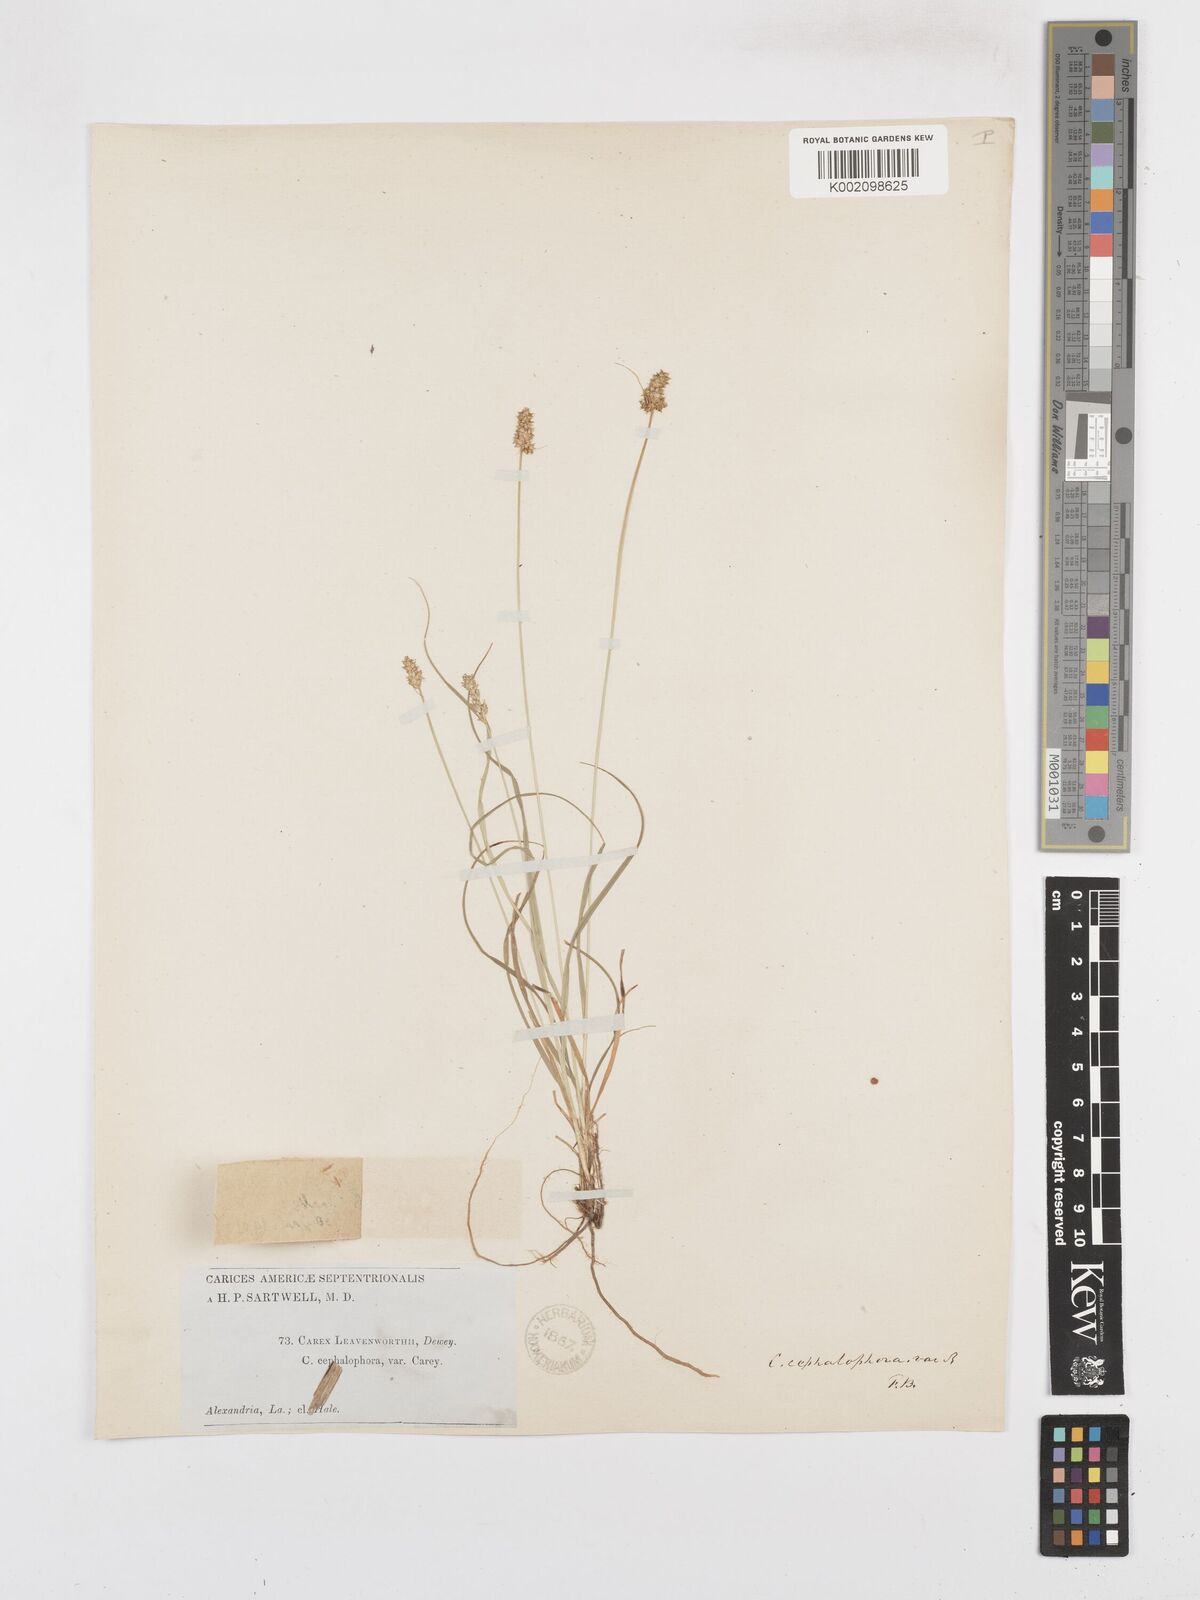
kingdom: Plantae
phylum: Tracheophyta
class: Liliopsida
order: Poales
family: Cyperaceae
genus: Carex
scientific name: Carex cephalophora
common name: Oval-headed sedge
